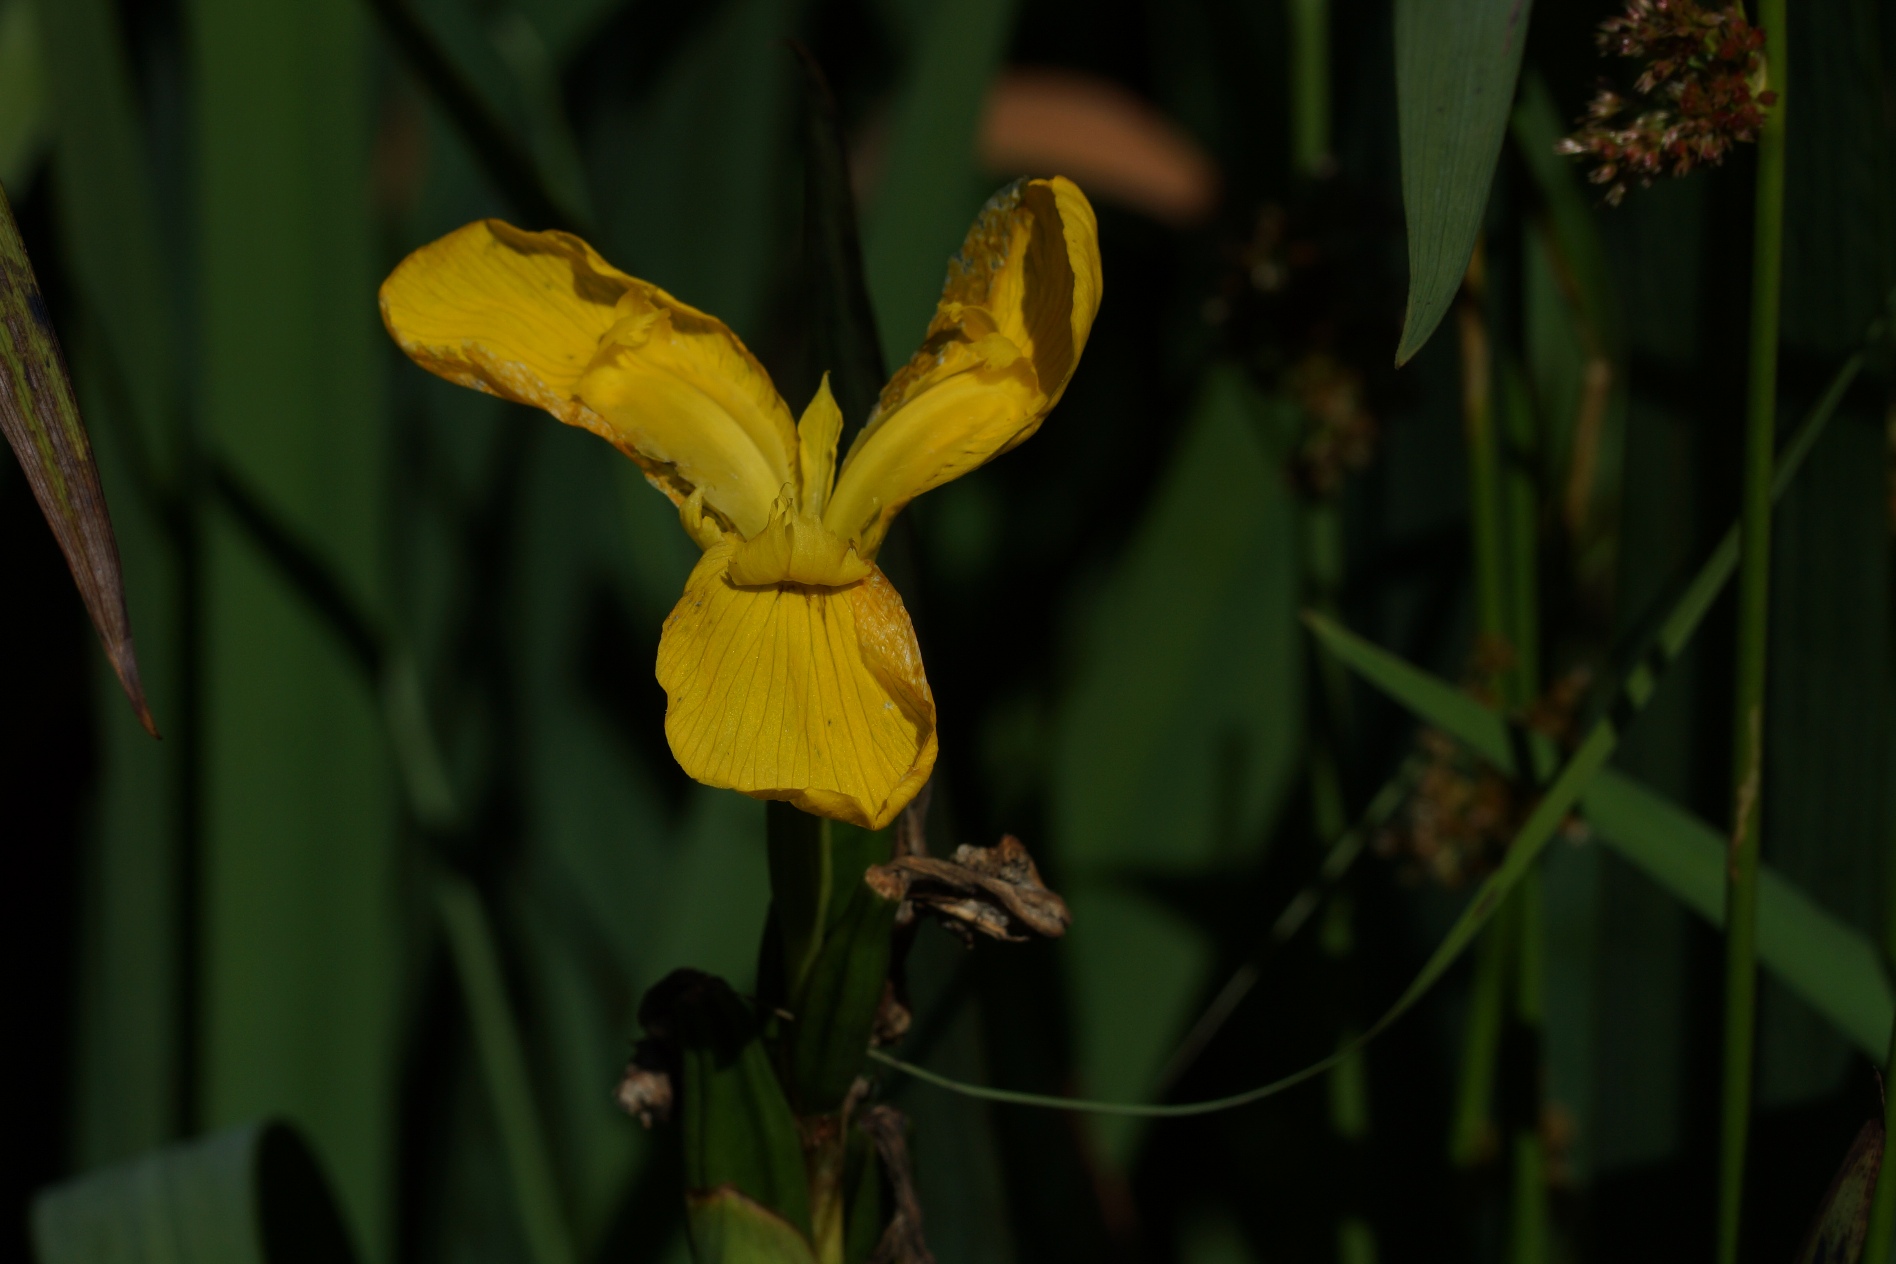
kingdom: Plantae
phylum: Tracheophyta
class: Liliopsida
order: Asparagales
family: Iridaceae
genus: Iris
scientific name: Iris pseudacorus
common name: Gul iris
